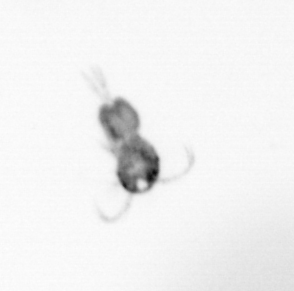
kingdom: Animalia
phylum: Arthropoda
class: Copepoda
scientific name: Copepoda
